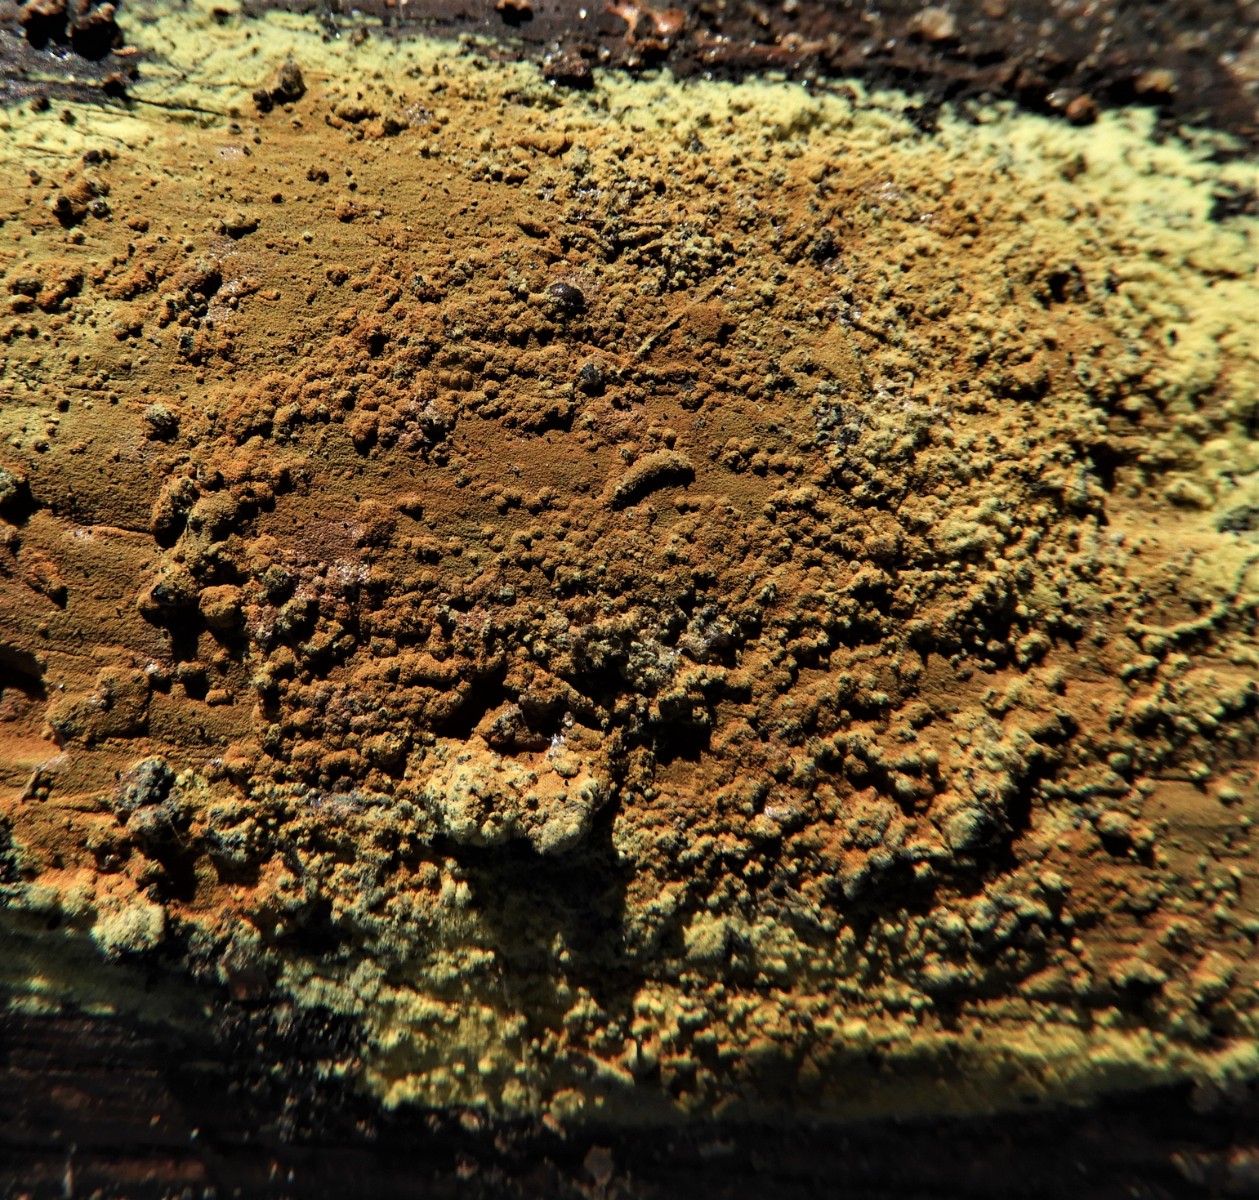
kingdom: Fungi
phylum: Ascomycota
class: Sordariomycetes
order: Xylariales
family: Hypoxylaceae
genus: Hypoxylon
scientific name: Hypoxylon
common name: kulbær
